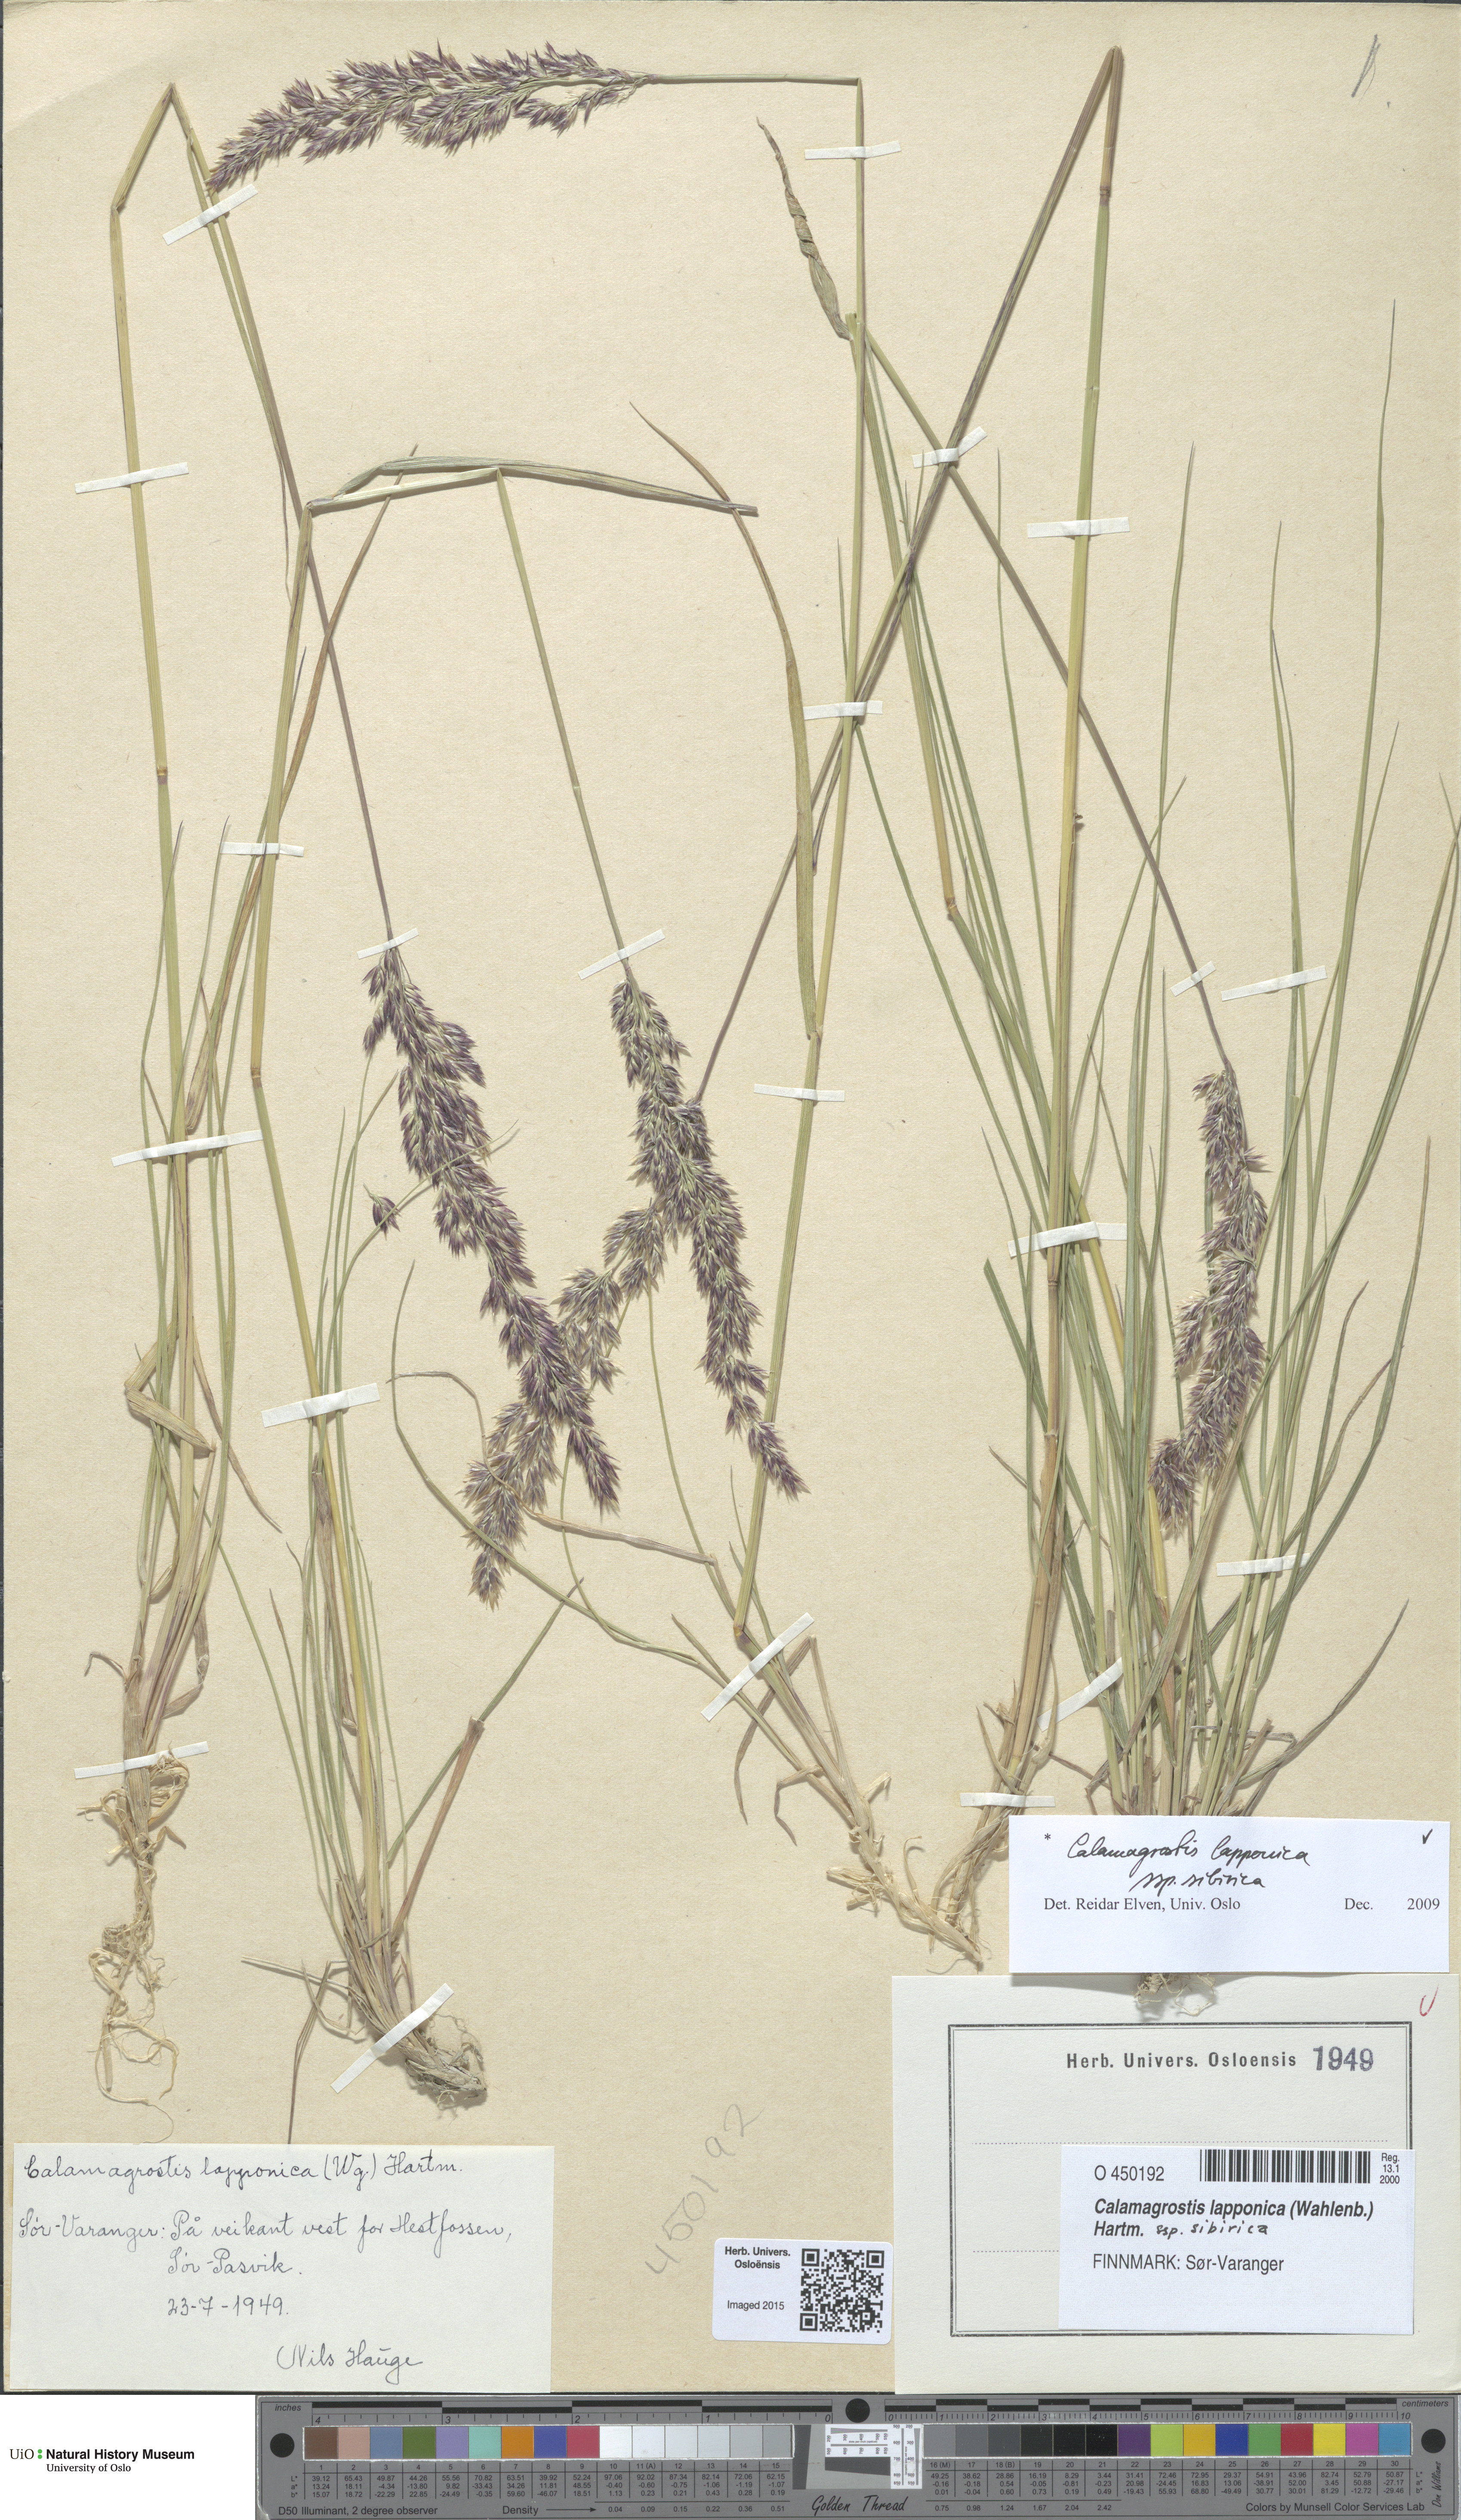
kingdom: Plantae
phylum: Tracheophyta
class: Liliopsida
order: Poales
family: Poaceae
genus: Calamagrostis
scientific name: Calamagrostis lapponica
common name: Lapland reedgrass
